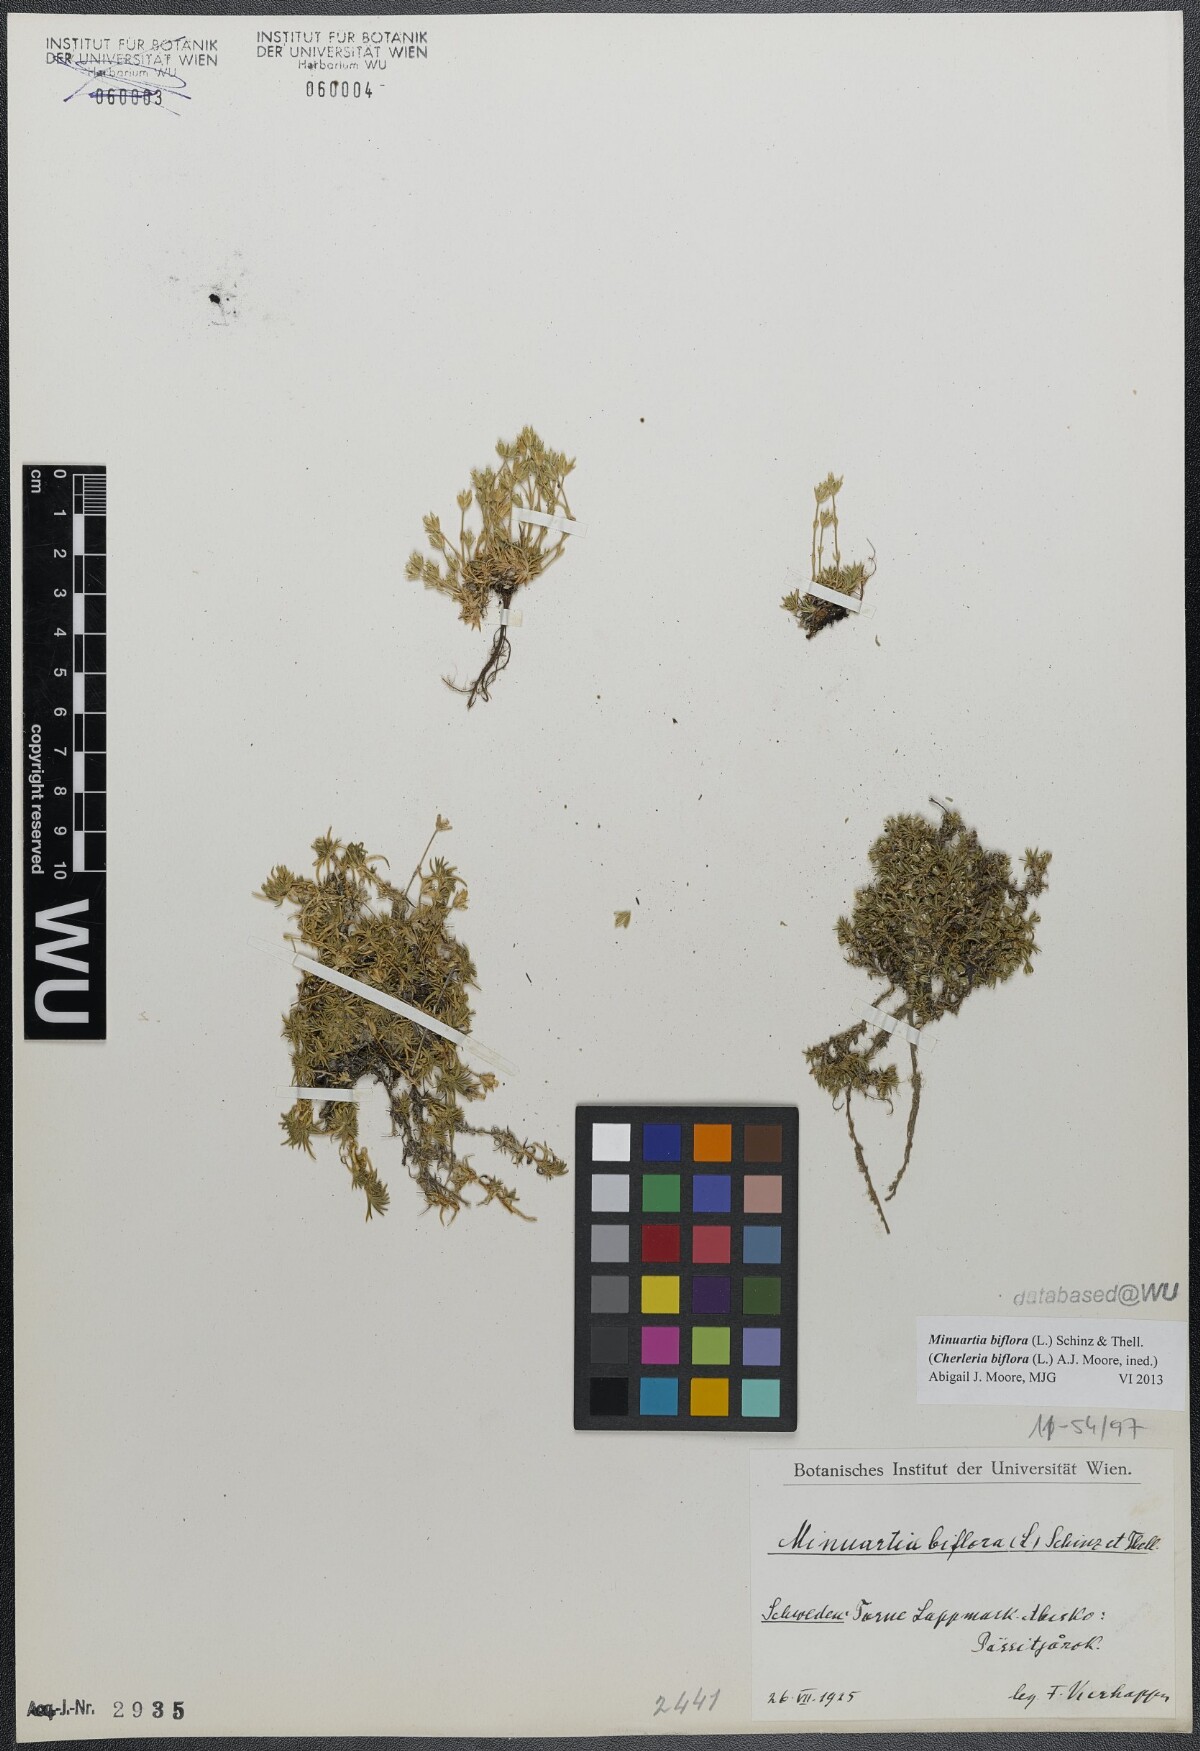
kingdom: Plantae
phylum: Tracheophyta
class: Magnoliopsida
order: Caryophyllales
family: Caryophyllaceae
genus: Cherleria
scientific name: Cherleria biflora
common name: Mountain sandwort
